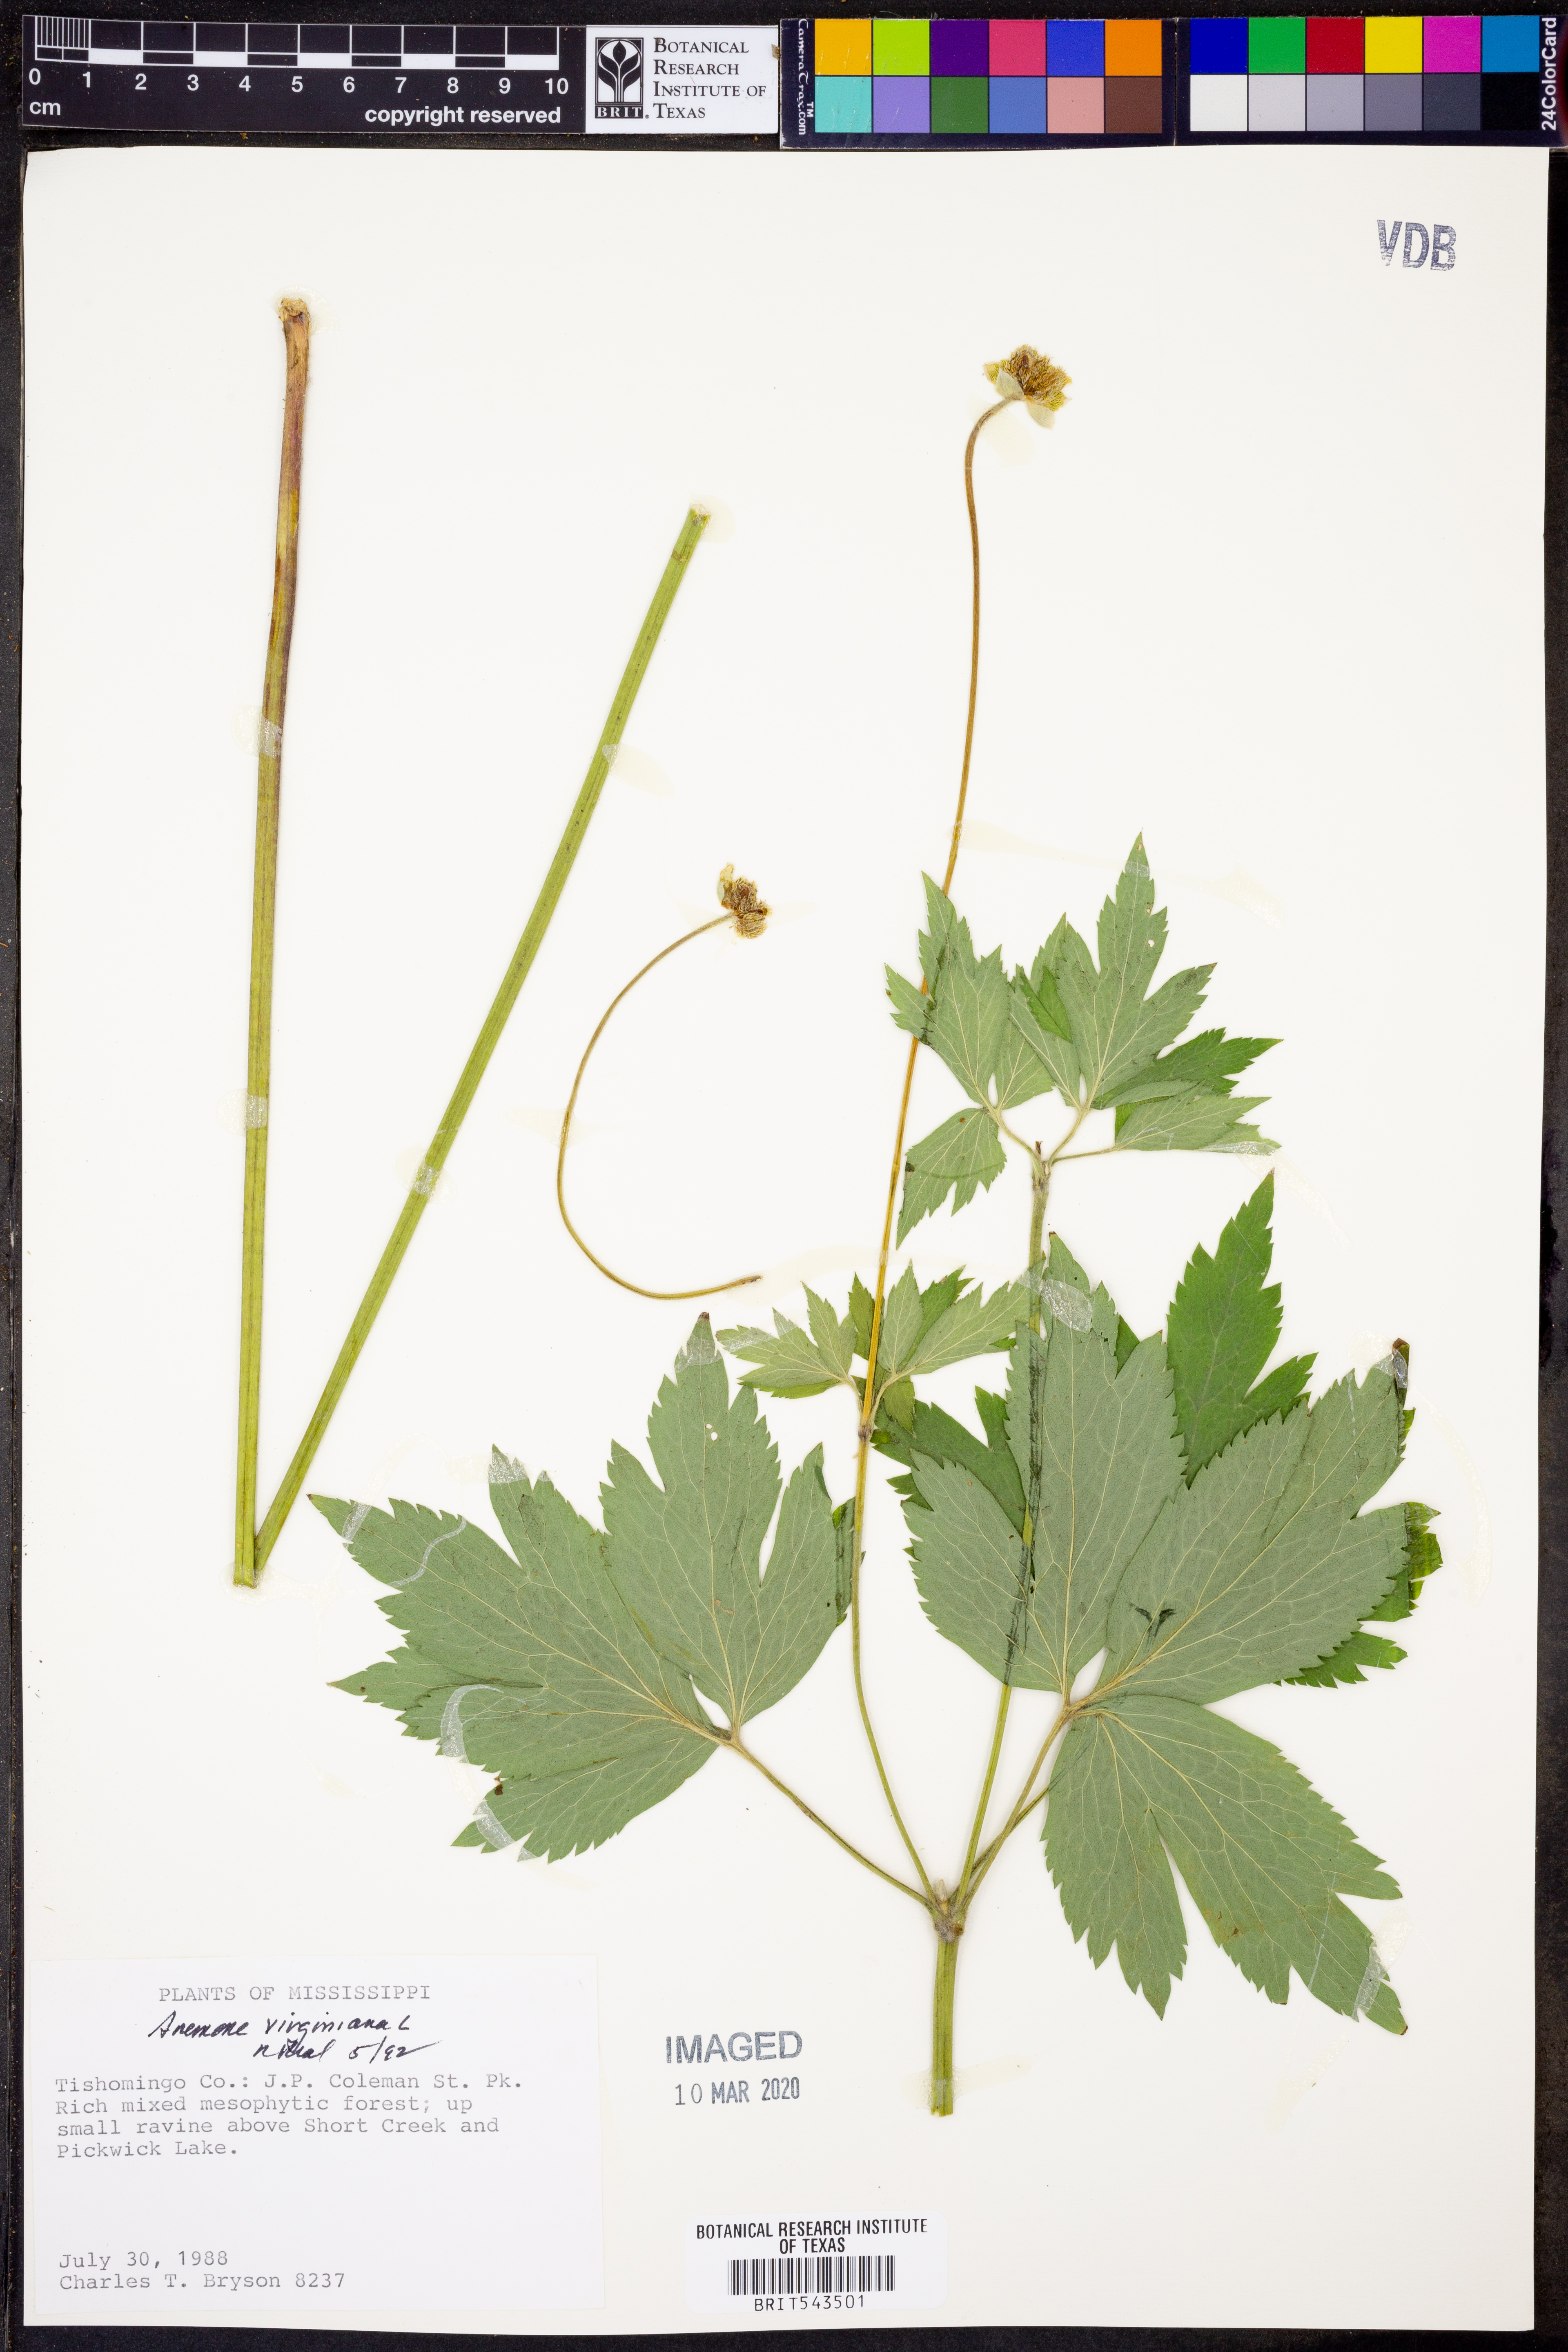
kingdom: Plantae
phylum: Tracheophyta
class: Magnoliopsida
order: Ranunculales
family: Ranunculaceae
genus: Anemone
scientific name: Anemone virginiana
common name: Tall anemone
